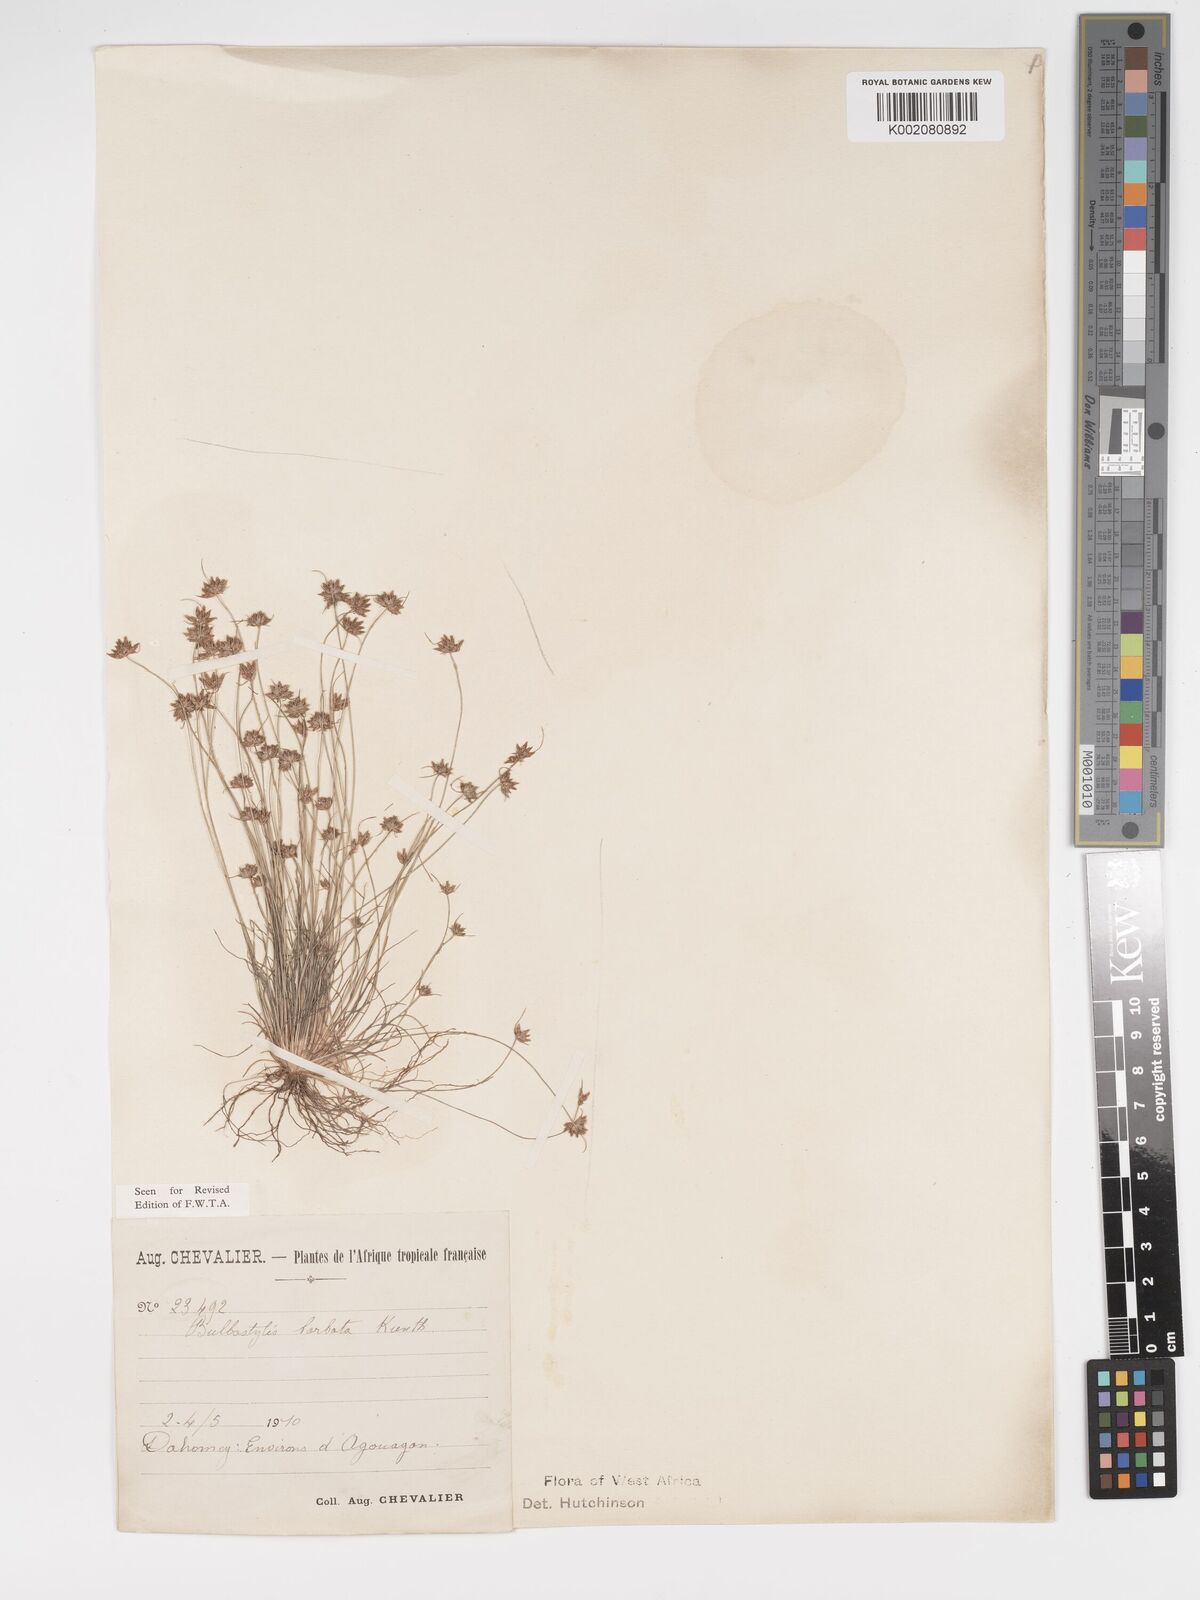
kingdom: Plantae
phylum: Tracheophyta
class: Liliopsida
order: Poales
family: Cyperaceae
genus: Bulbostylis
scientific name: Bulbostylis barbata
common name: Watergrass
